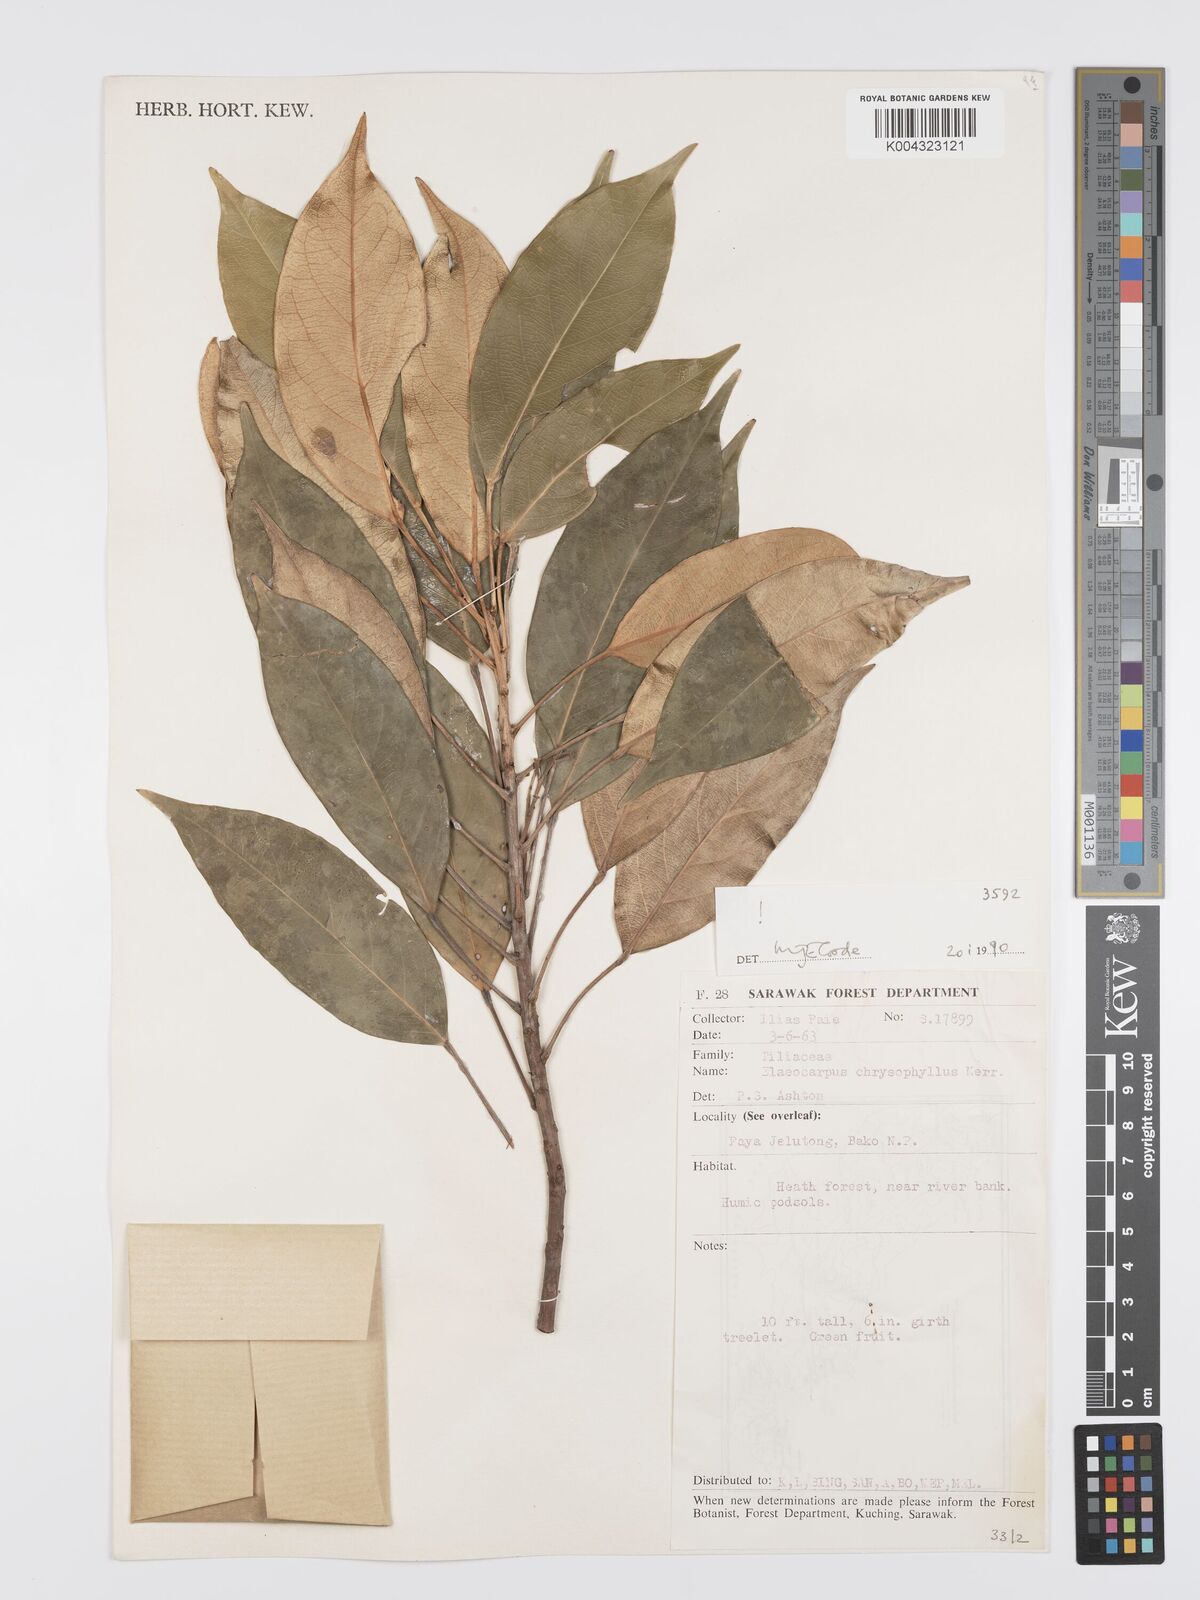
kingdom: Plantae
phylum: Tracheophyta
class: Magnoliopsida
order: Oxalidales
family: Elaeocarpaceae
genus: Elaeocarpus
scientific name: Elaeocarpus chrysophyllus
